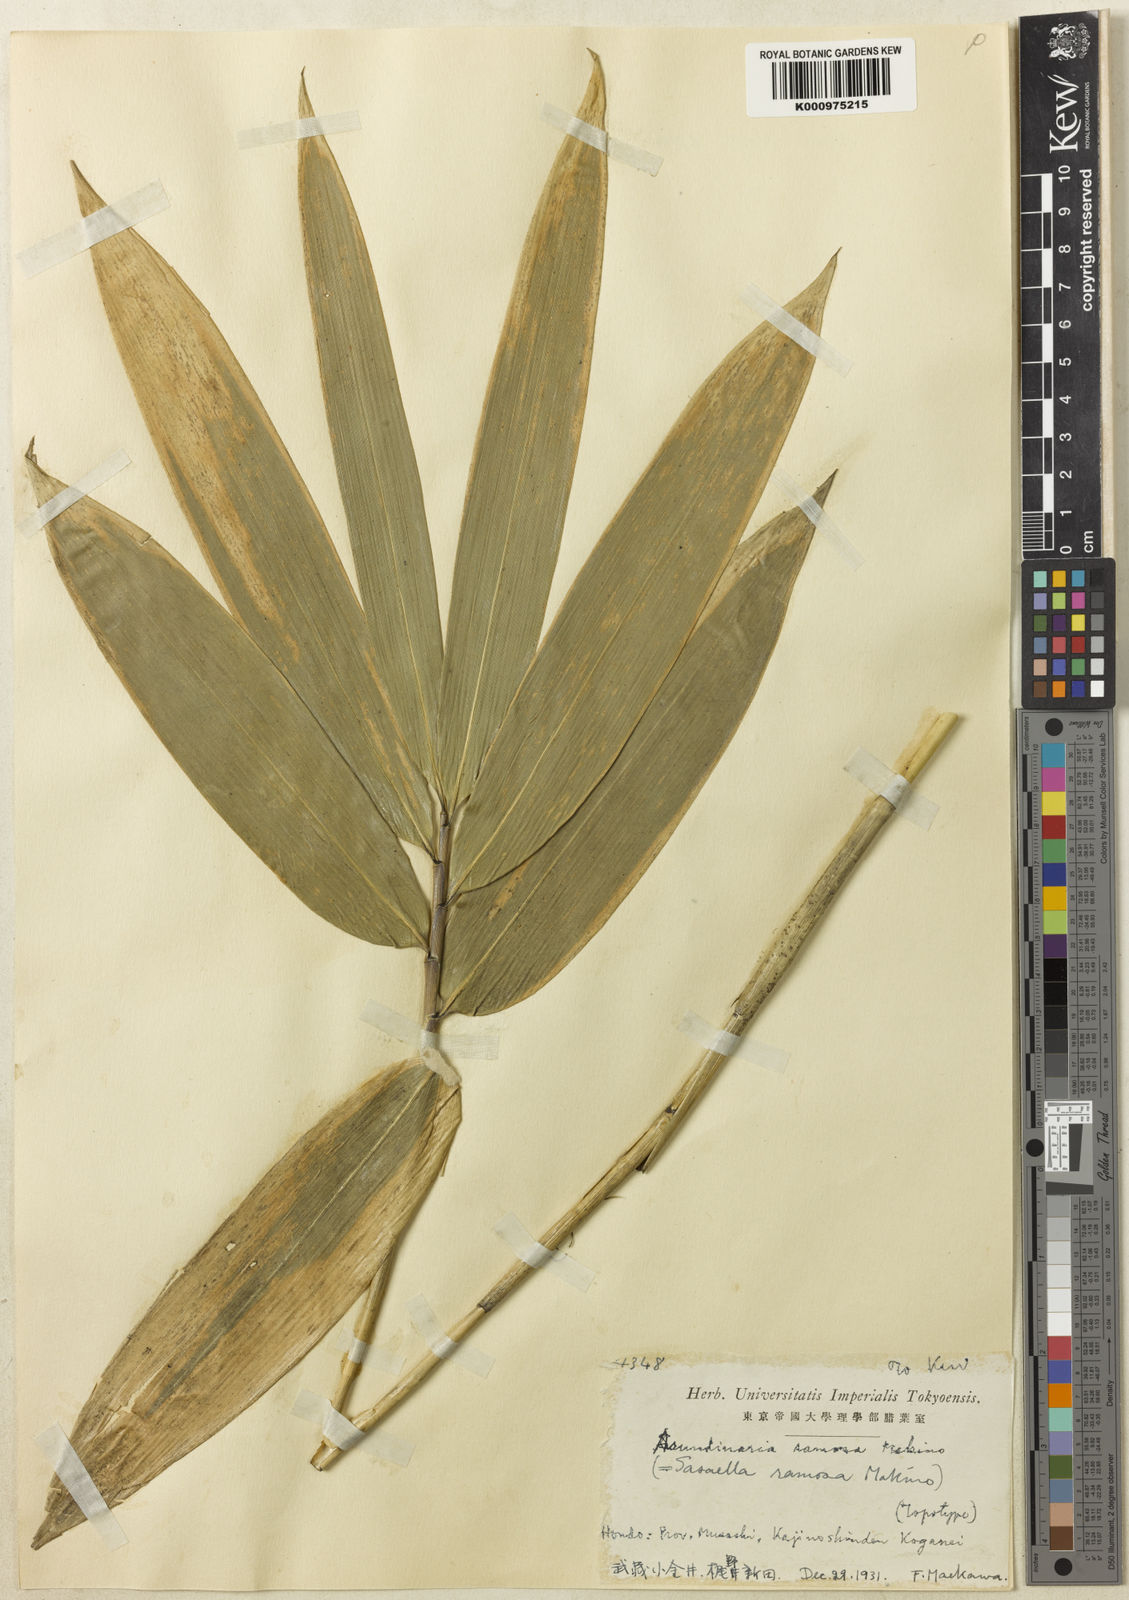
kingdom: Plantae
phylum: Tracheophyta
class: Liliopsida
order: Poales
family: Poaceae
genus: Sasaella
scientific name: Sasaella ramosa
